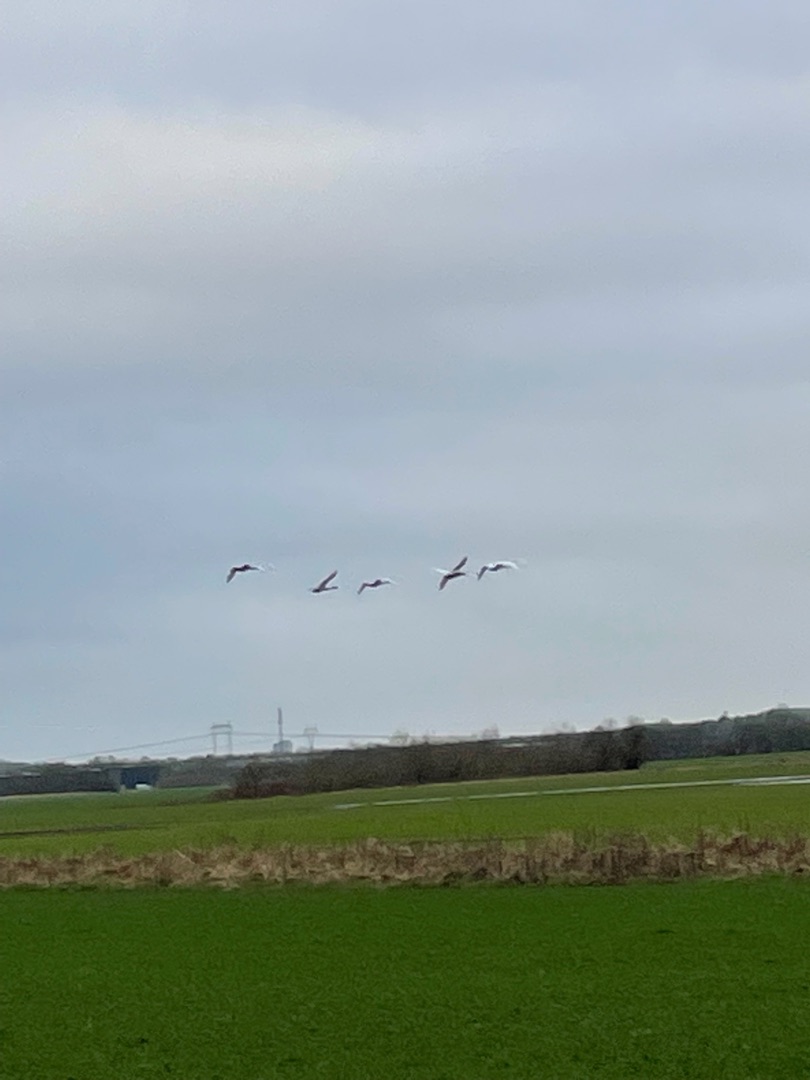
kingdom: Animalia
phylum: Chordata
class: Aves
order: Anseriformes
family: Anatidae
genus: Cygnus
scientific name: Cygnus cygnus
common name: Sangsvane
